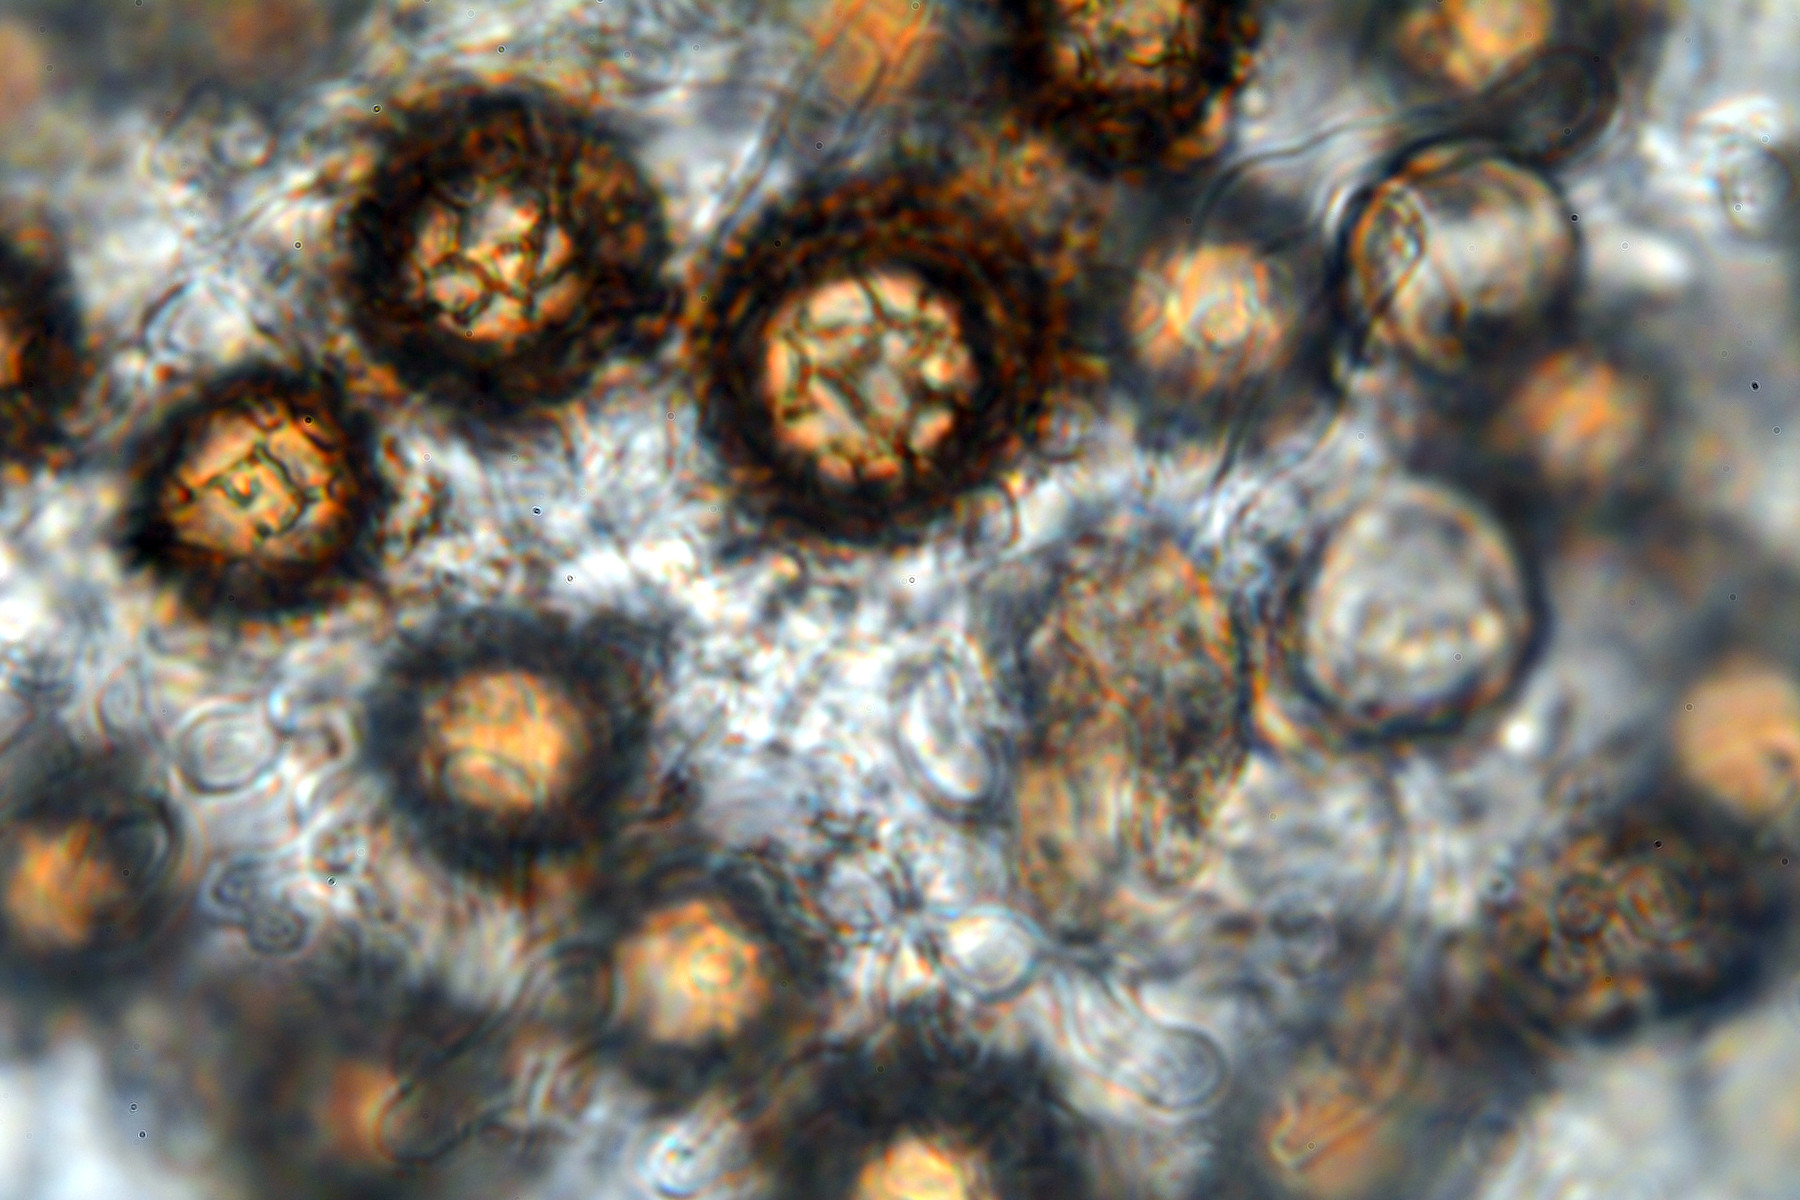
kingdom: Fungi
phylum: Basidiomycota
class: Agaricomycetes
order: Boletales
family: Sclerodermataceae
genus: Scleroderma
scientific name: Scleroderma
